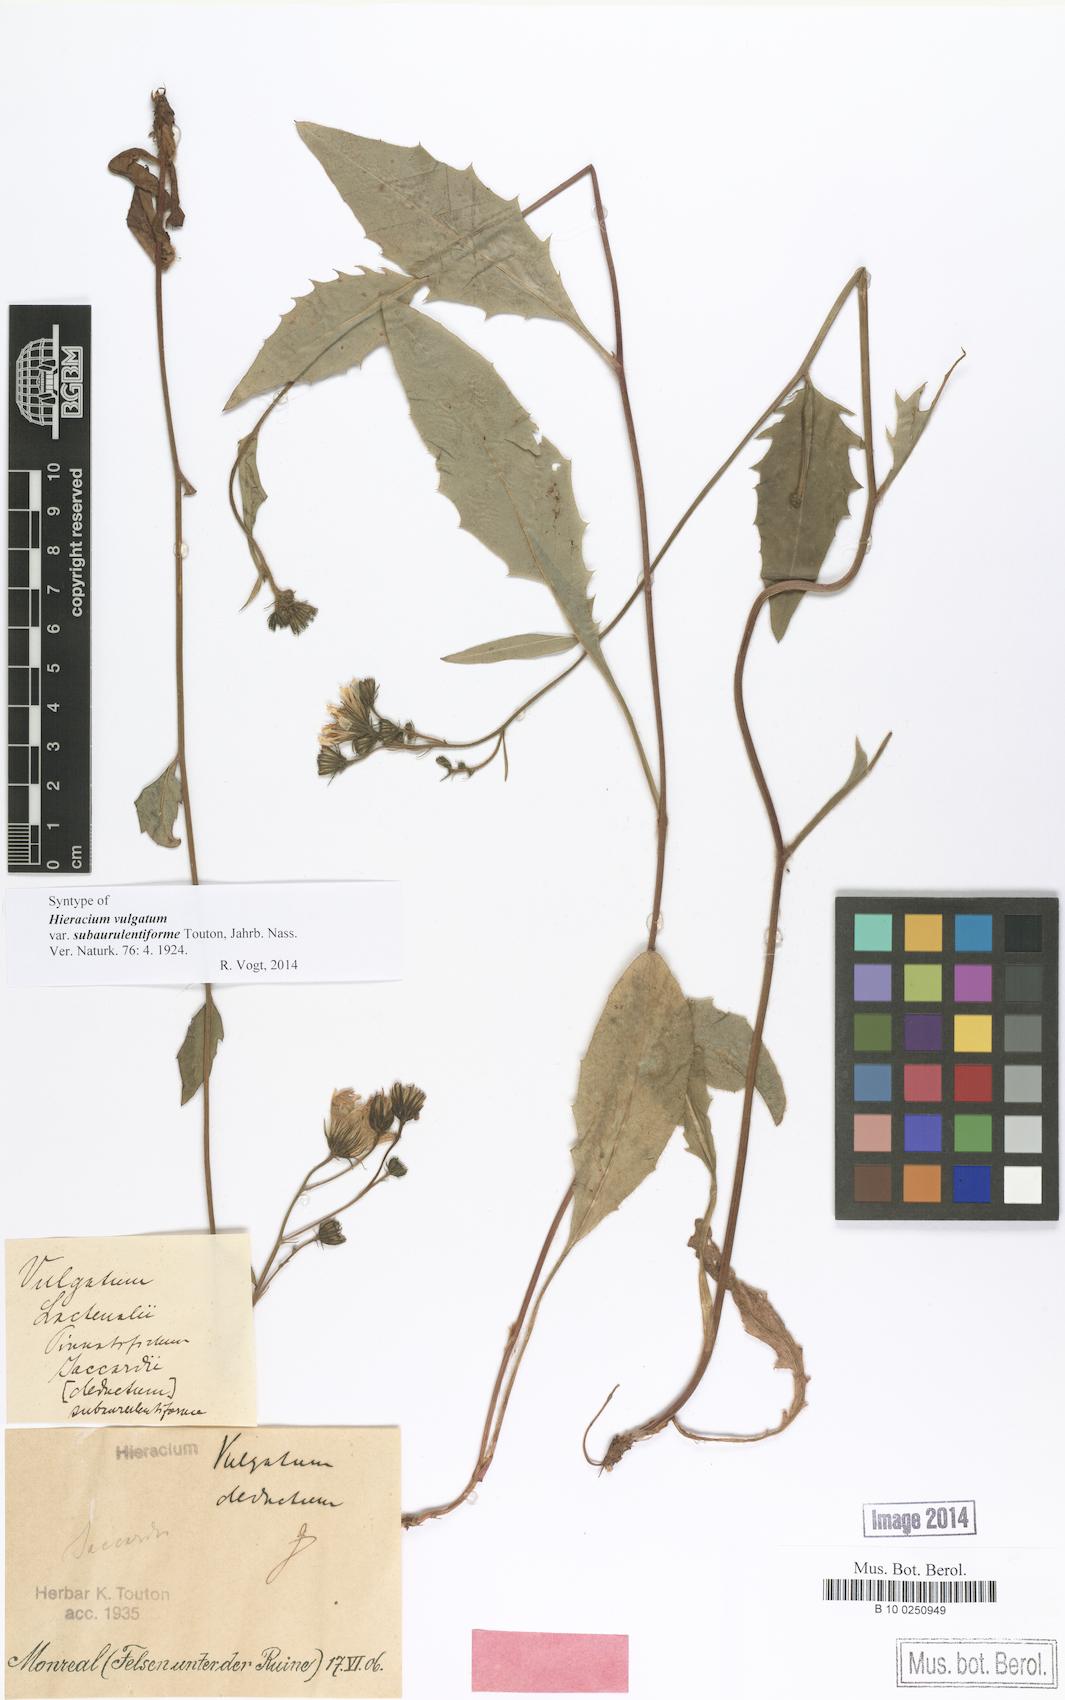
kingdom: Plantae
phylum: Tracheophyta
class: Magnoliopsida
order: Asterales
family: Asteraceae
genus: Hieracium
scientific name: Hieracium vulgatum
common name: Common hawkweed
